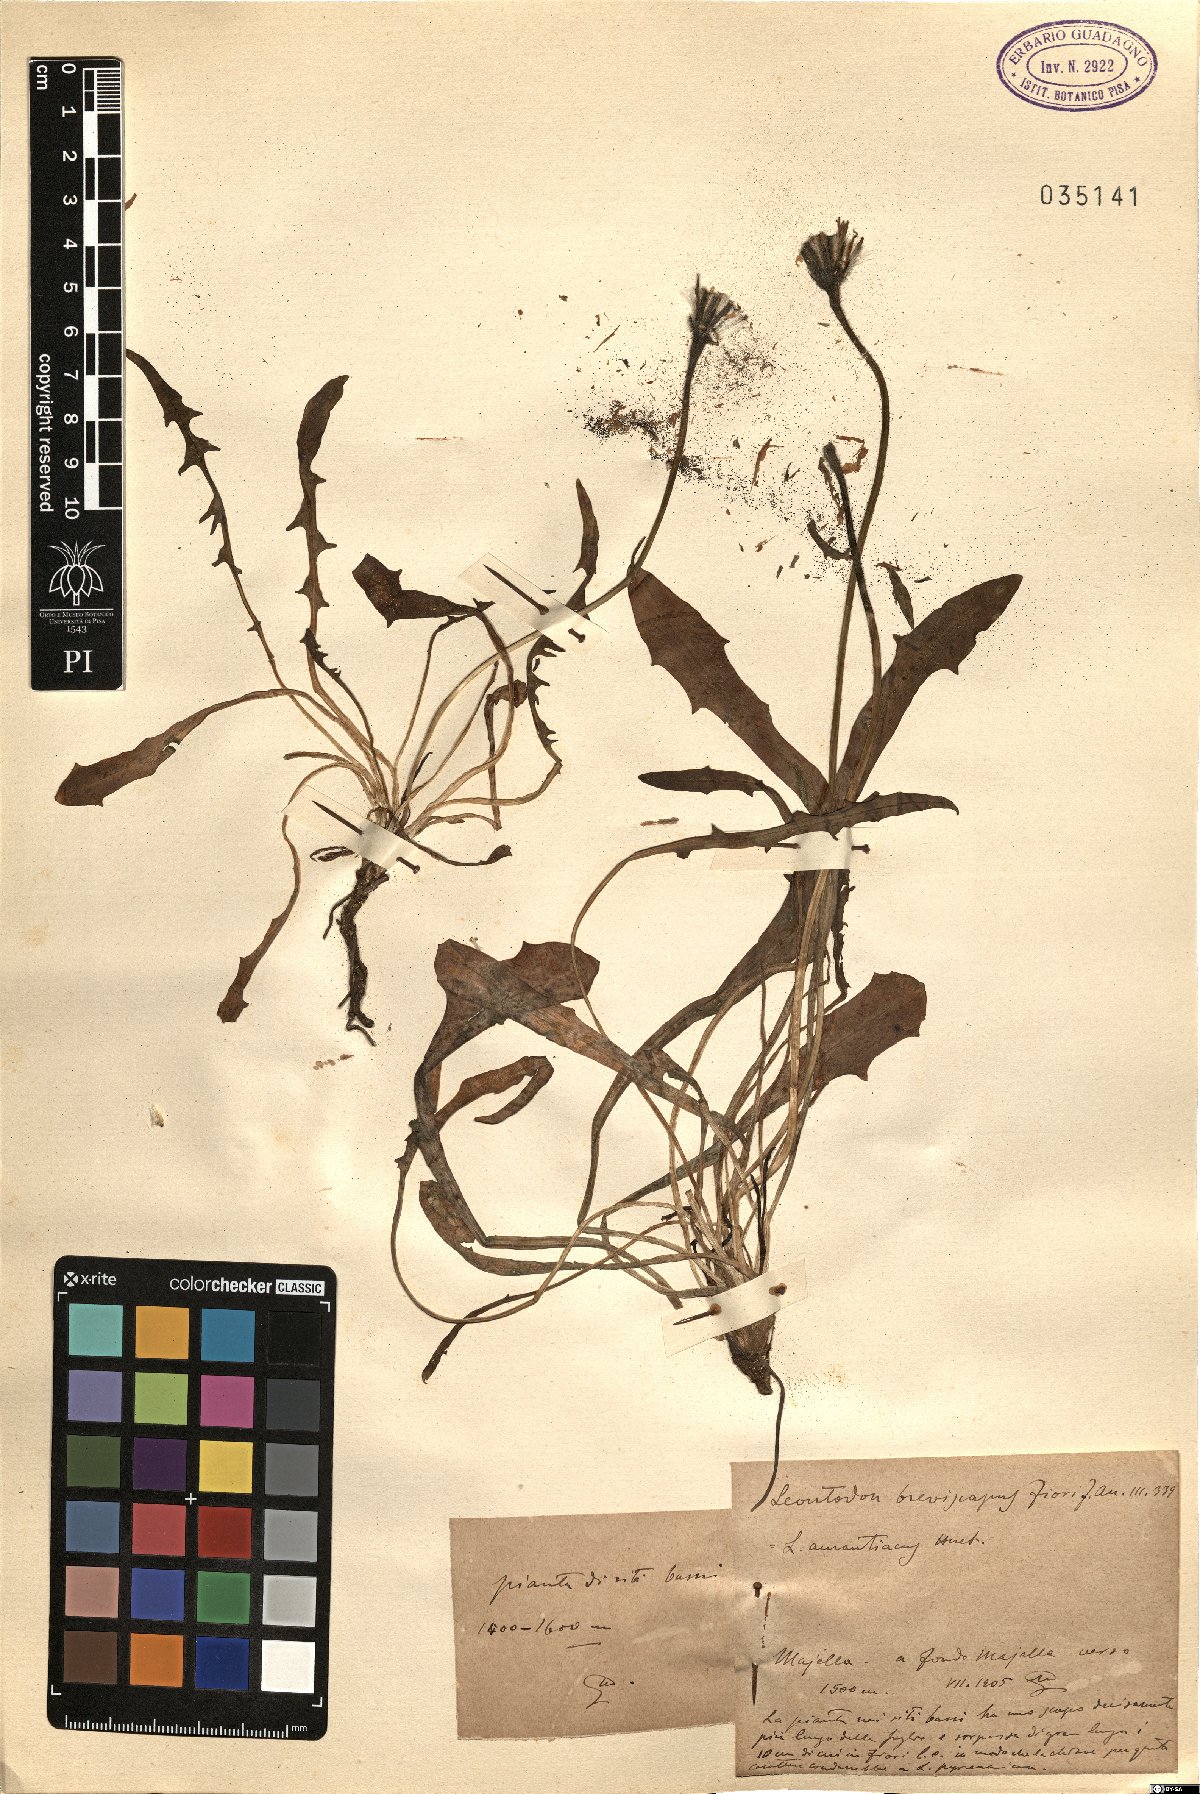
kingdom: Plantae
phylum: Tracheophyta
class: Magnoliopsida
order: Asterales
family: Asteraceae
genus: Leontodon
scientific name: Leontodon
